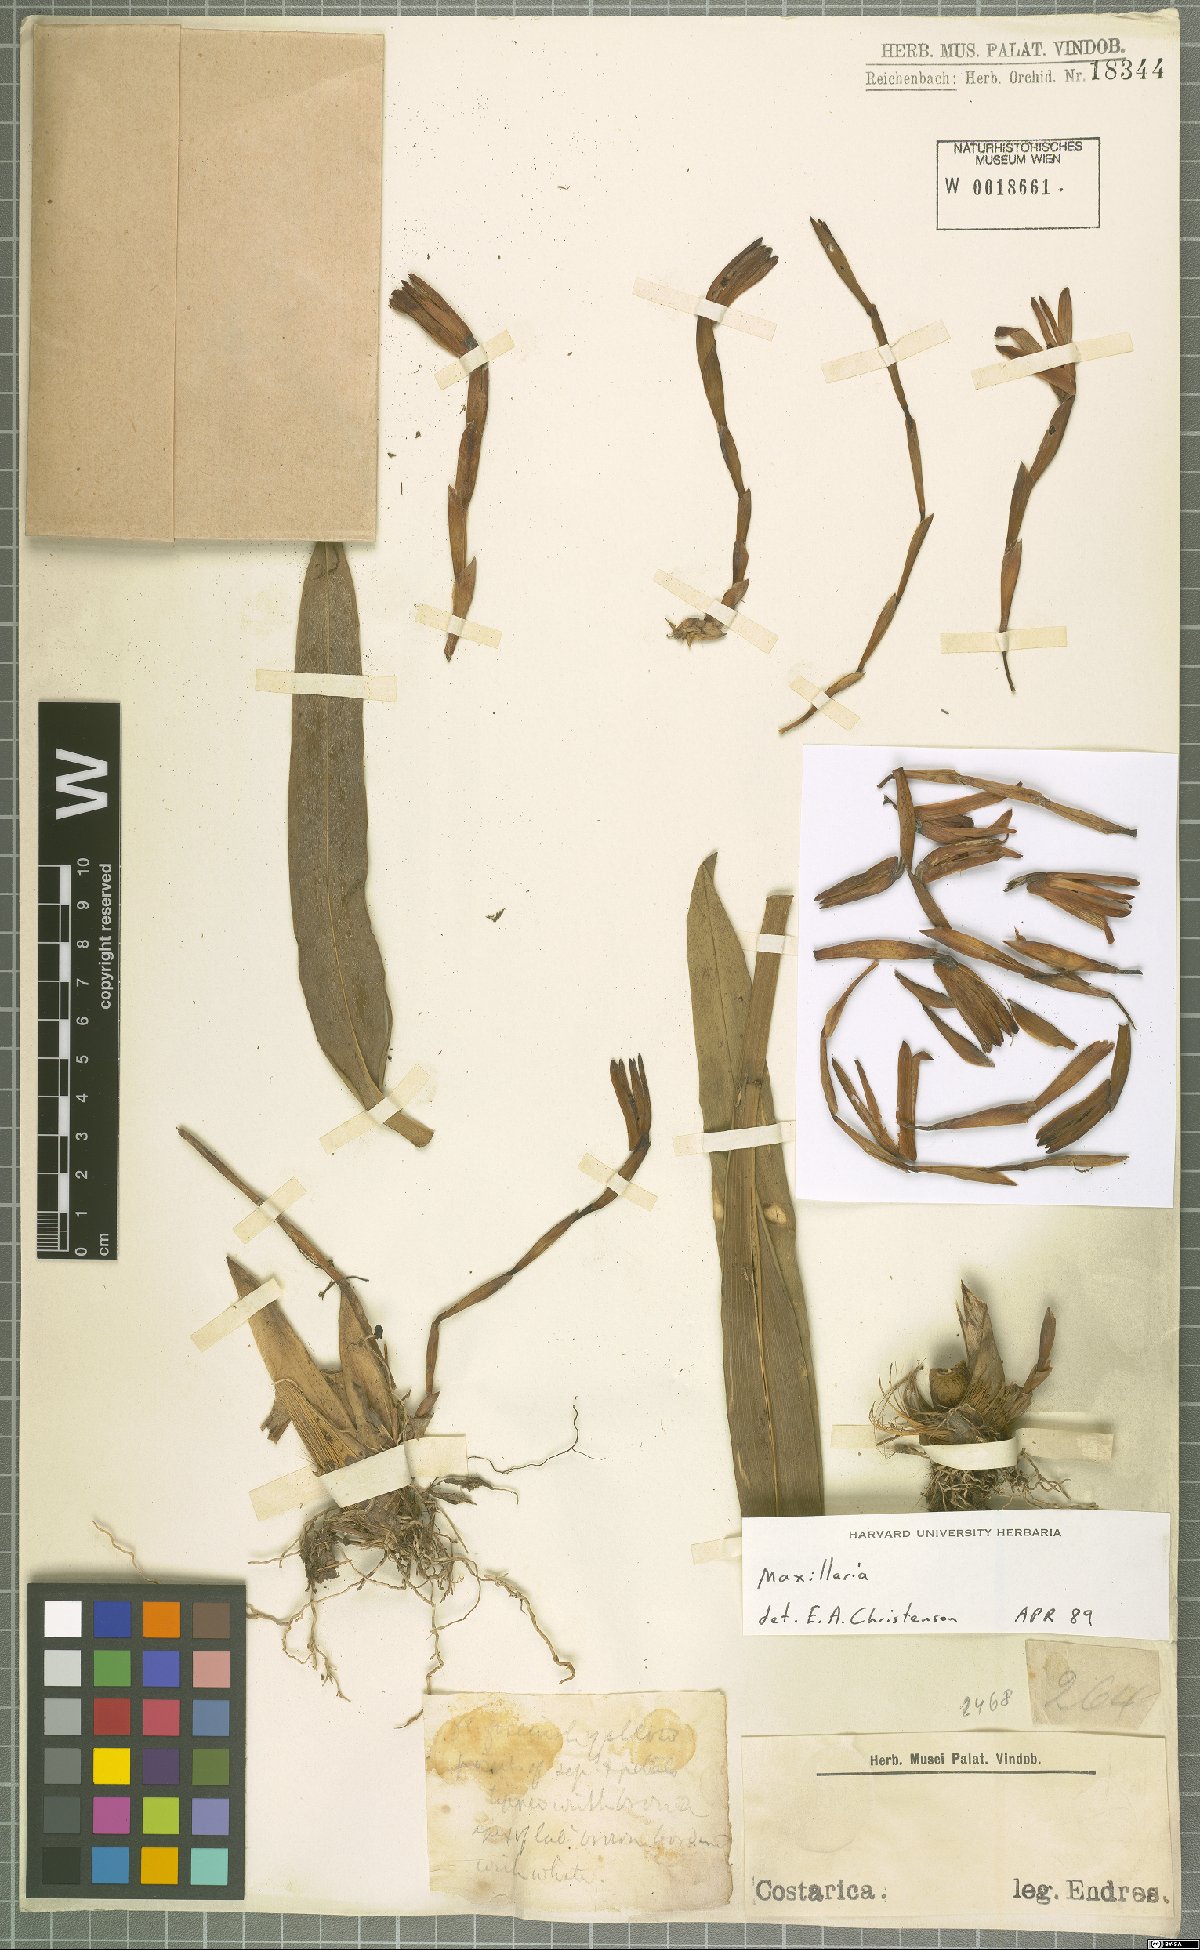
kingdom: Plantae
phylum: Tracheophyta
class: Liliopsida
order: Asparagales
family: Orchidaceae
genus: Maxillaria
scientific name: Maxillaria
